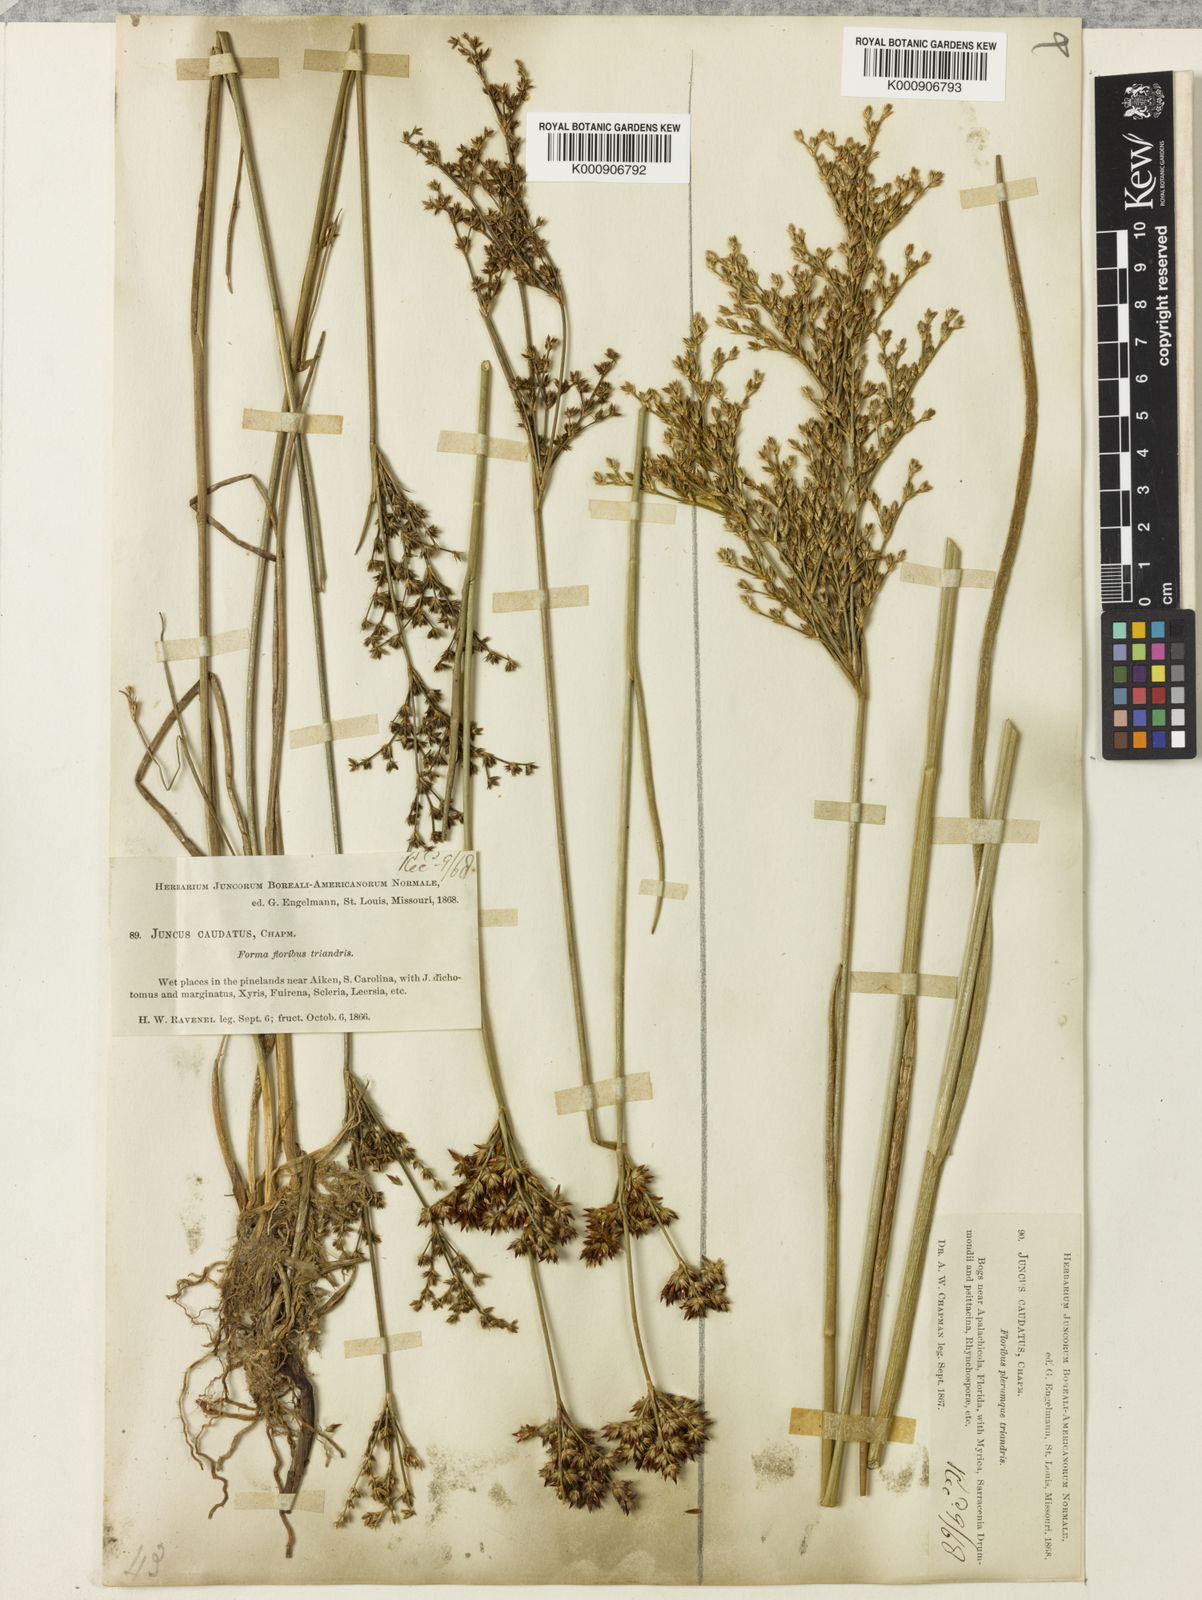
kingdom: Plantae
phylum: Tracheophyta
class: Liliopsida
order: Poales
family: Juncaceae
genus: Juncus
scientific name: Juncus trigonocarpus
